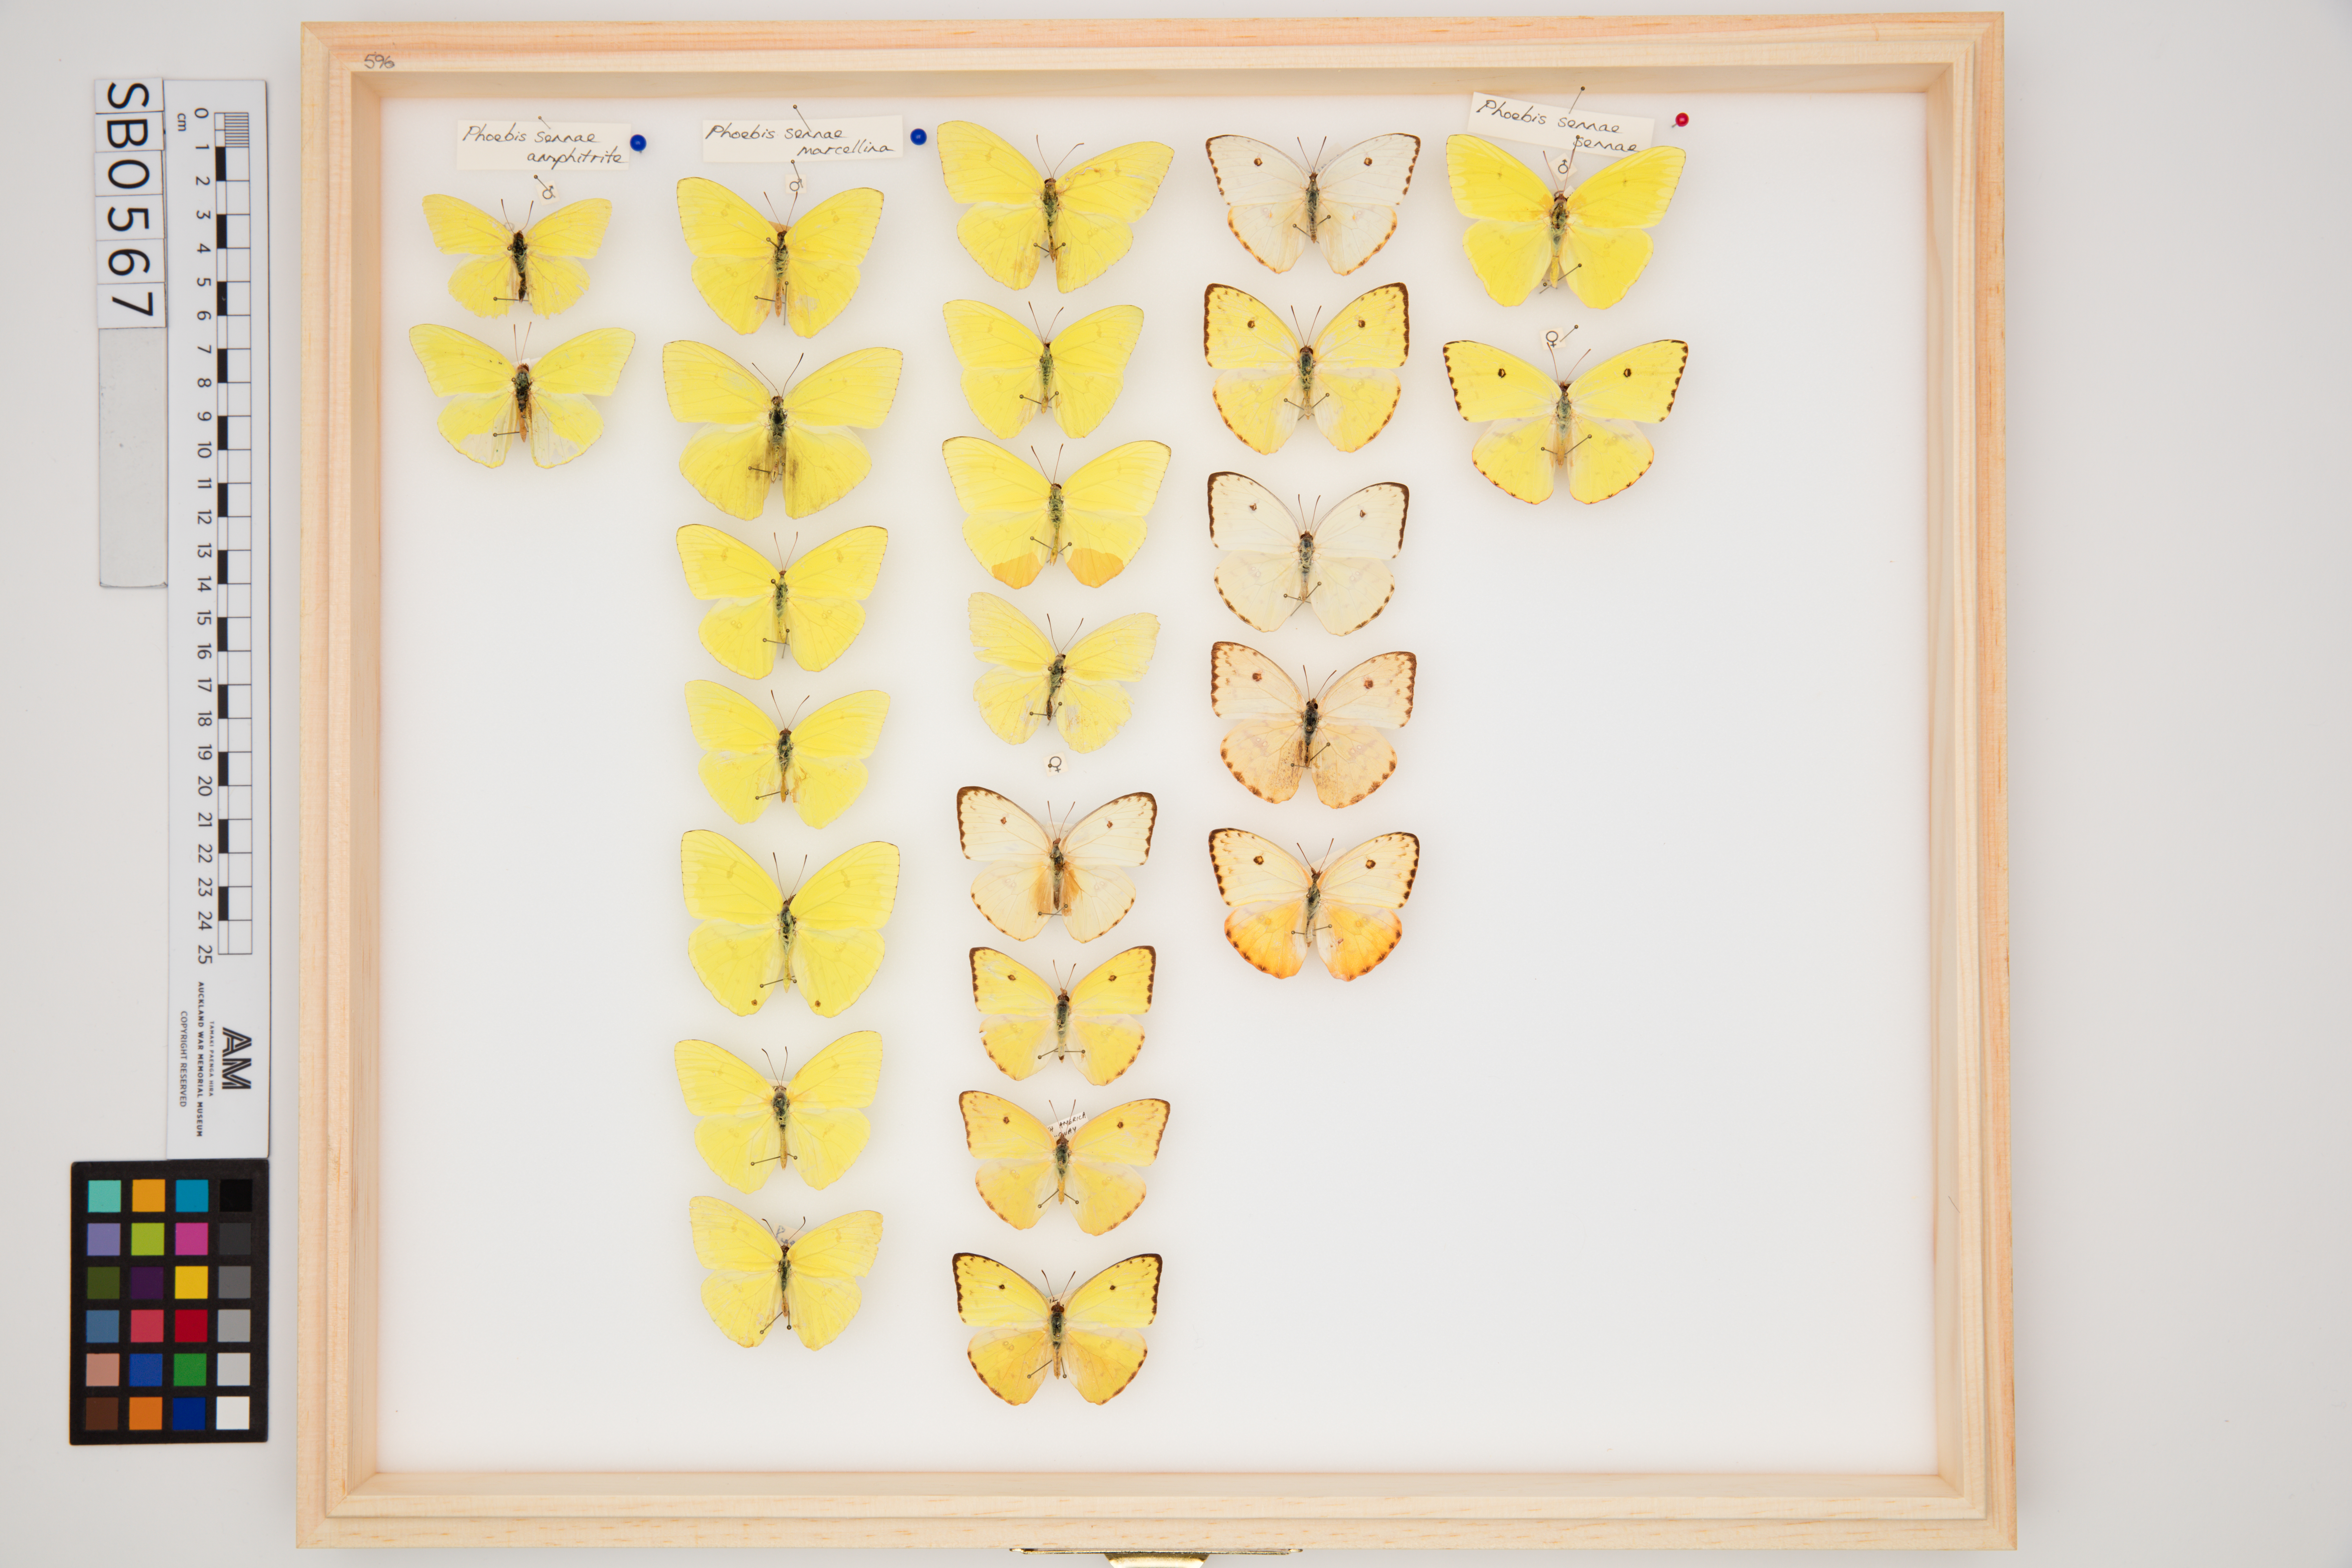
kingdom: Animalia
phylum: Arthropoda
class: Insecta
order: Lepidoptera
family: Pieridae
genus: Phoebis
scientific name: Phoebis sennae
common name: Cloudless sulphur
